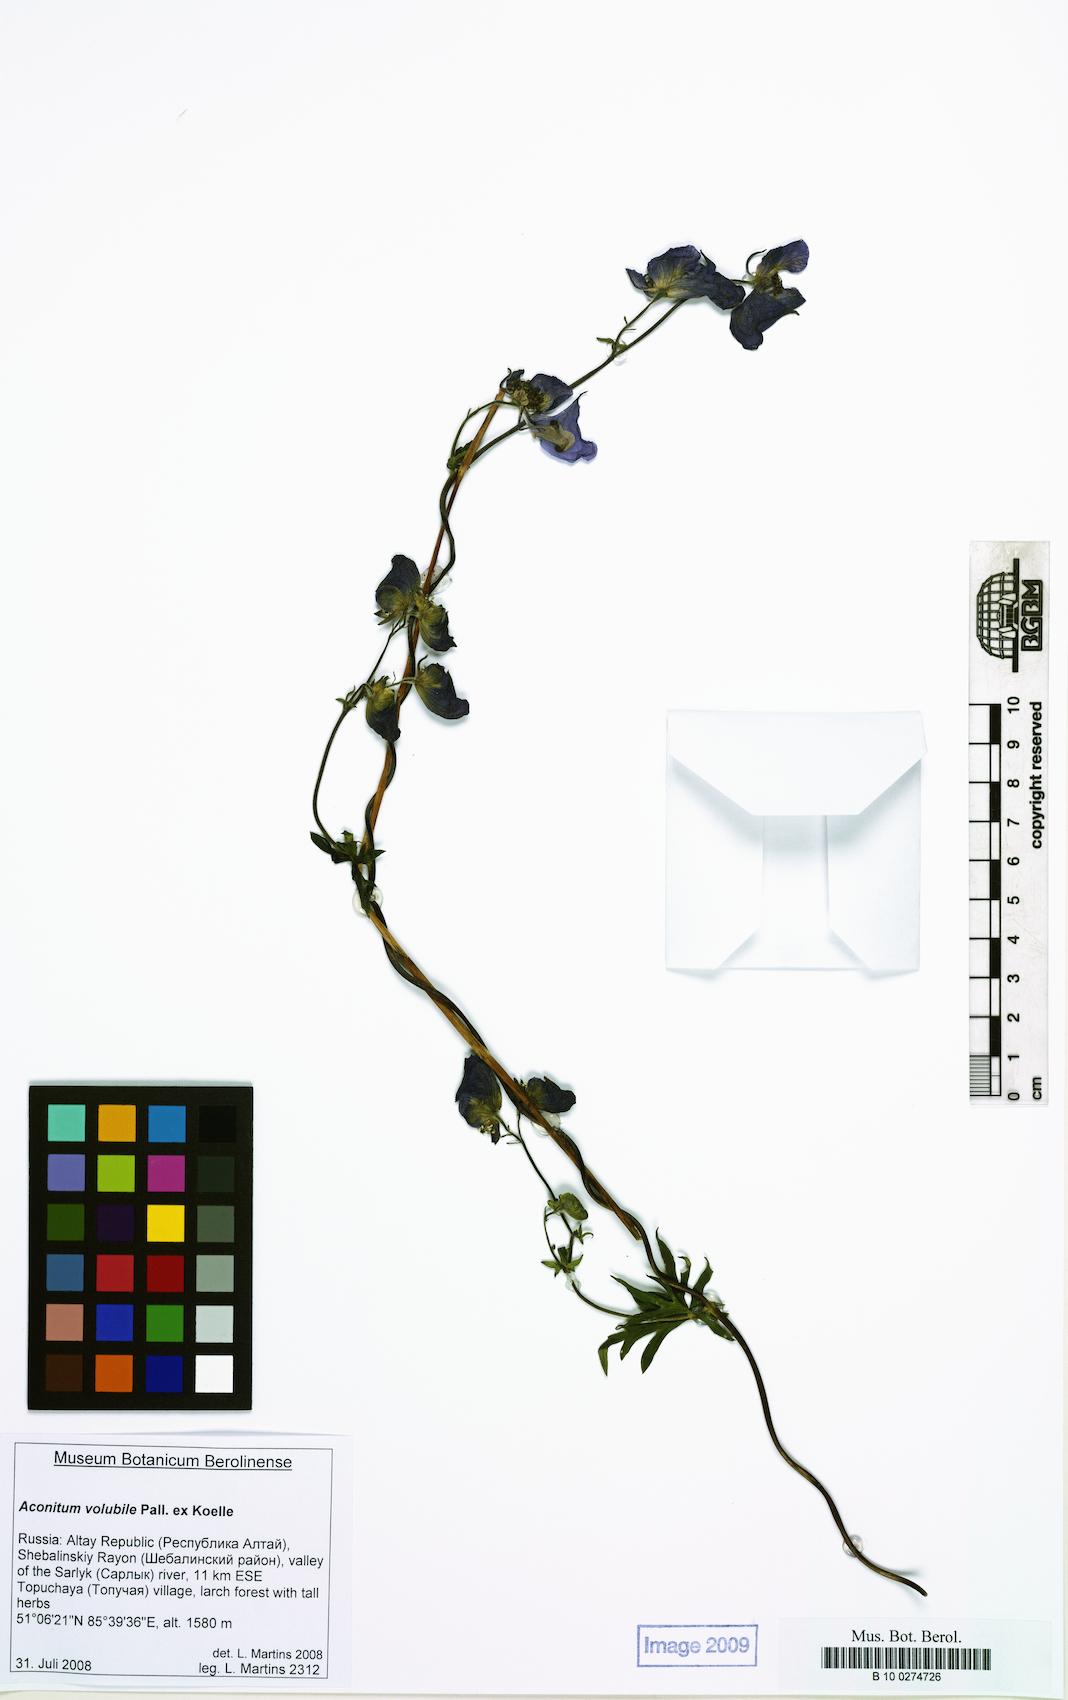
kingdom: Plantae
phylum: Tracheophyta
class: Magnoliopsida
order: Ranunculales
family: Ranunculaceae
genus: Aconitum
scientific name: Aconitum volubile
